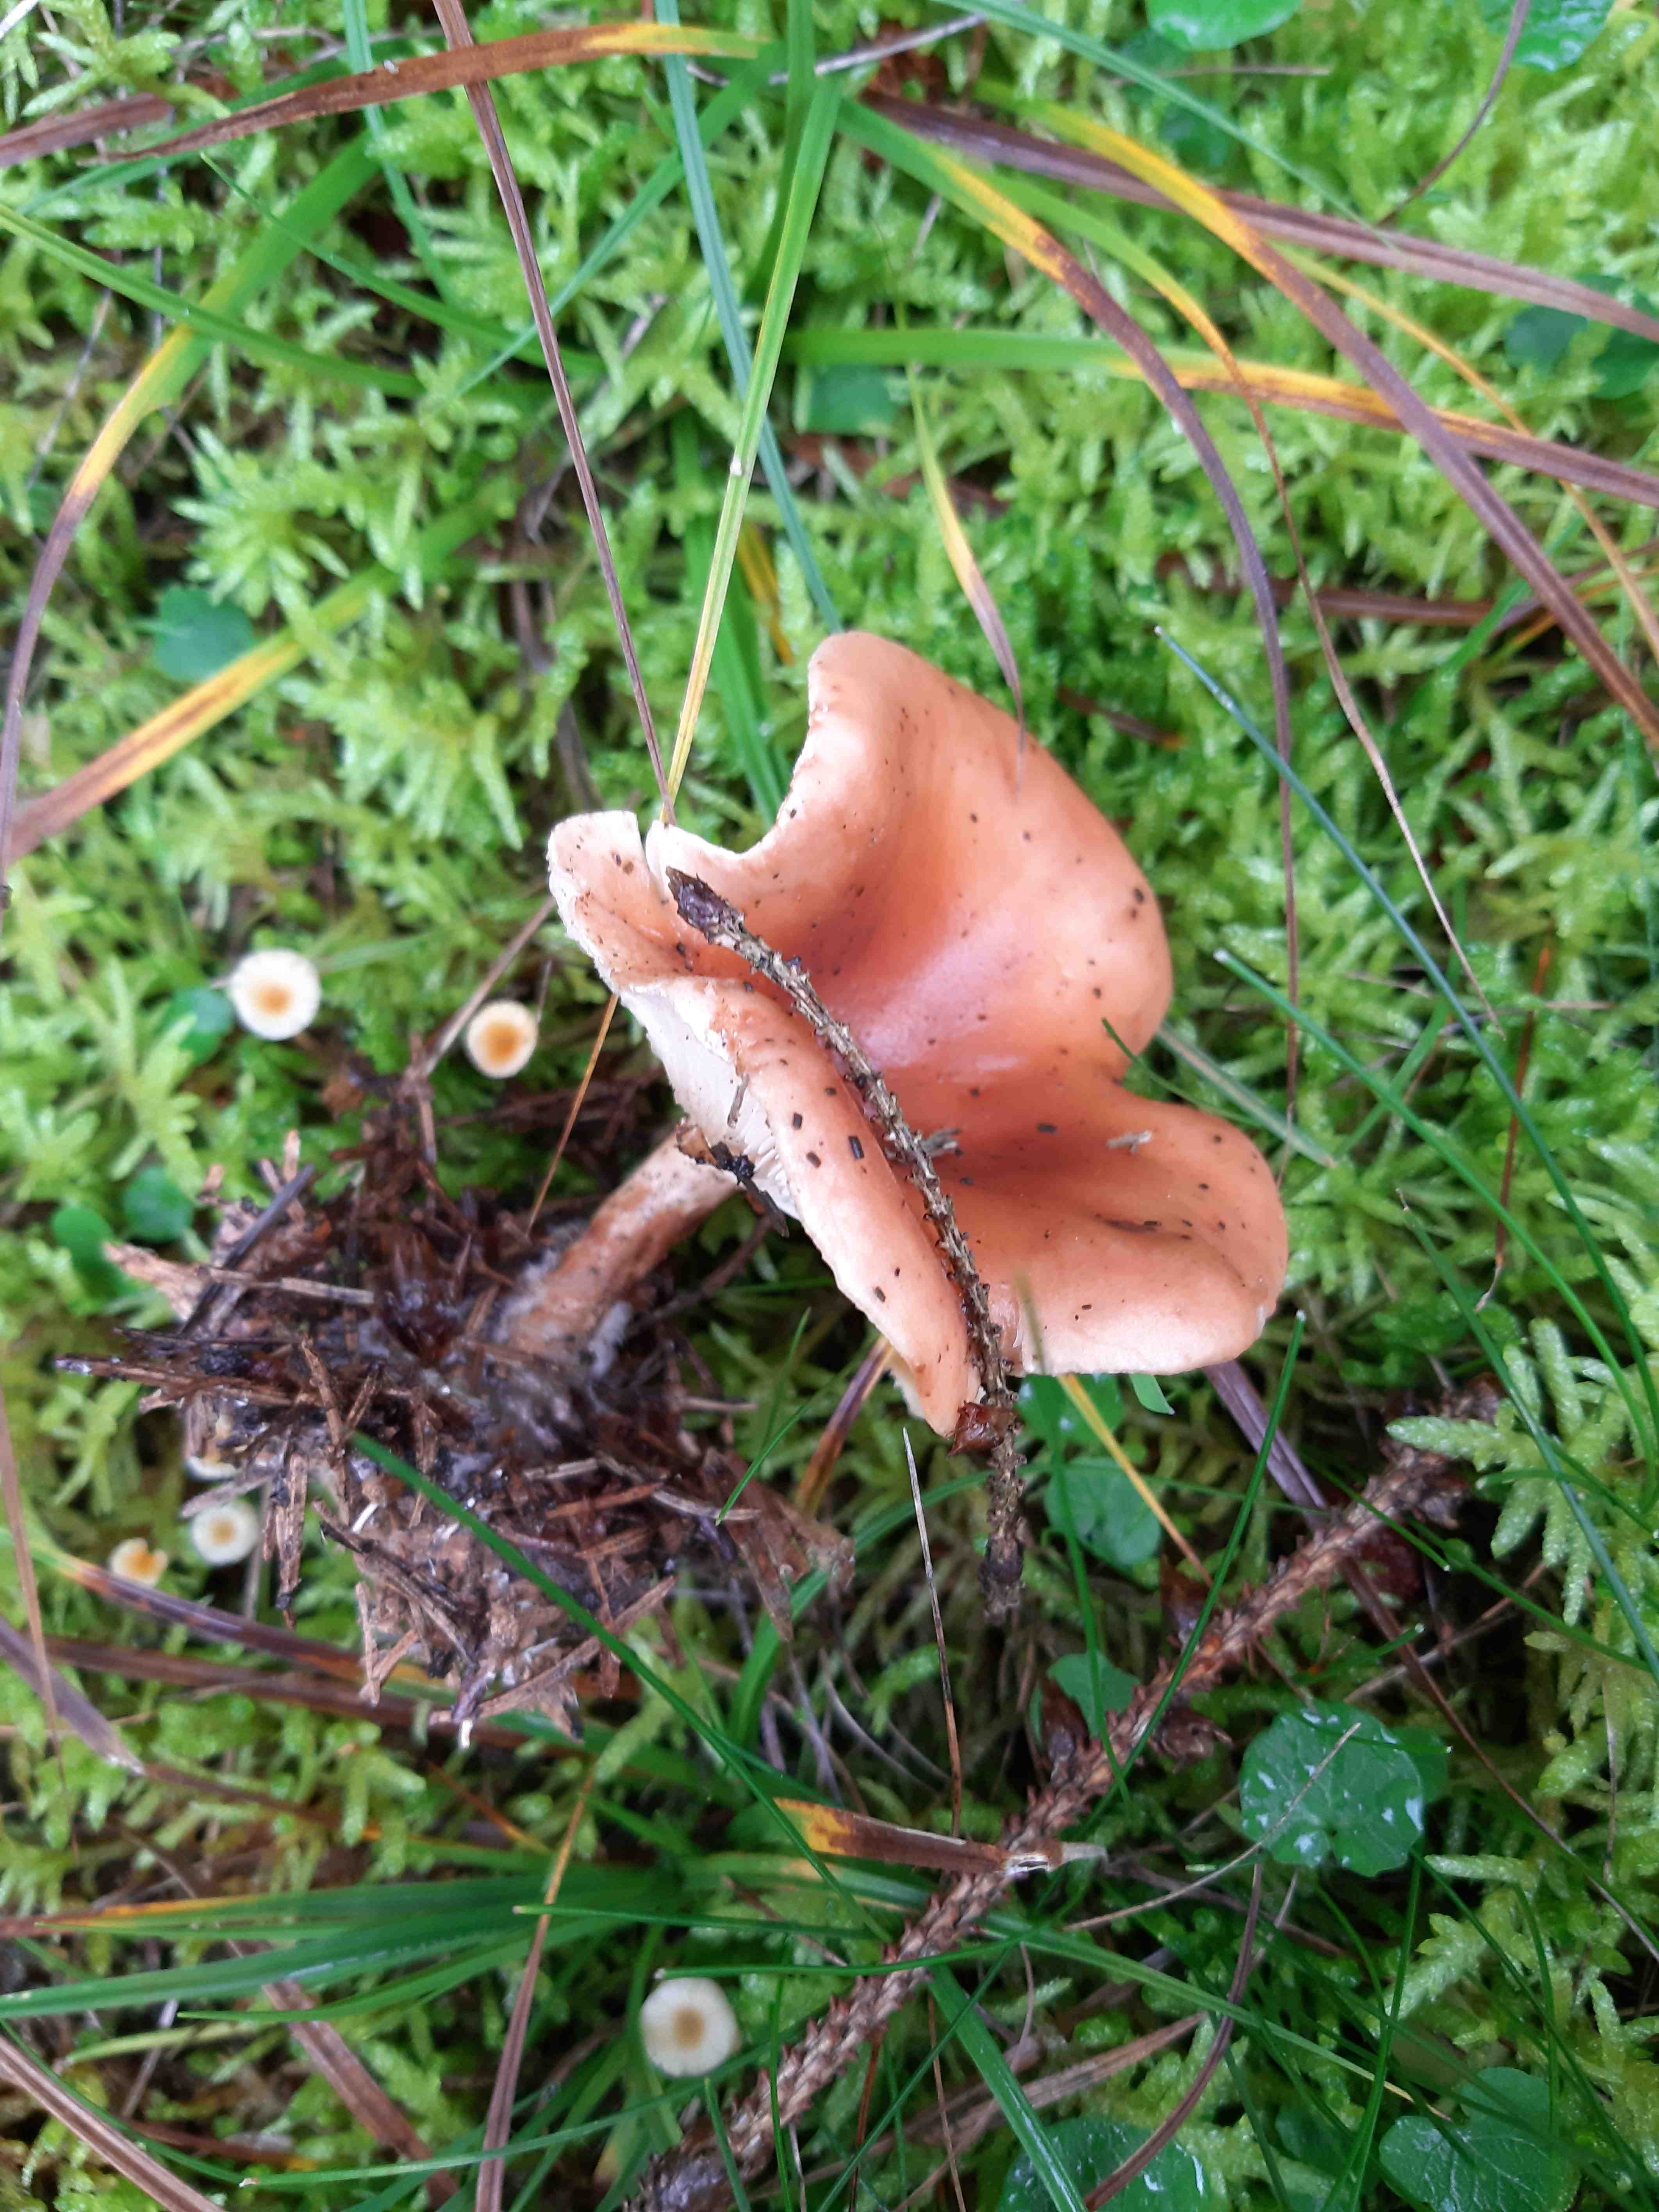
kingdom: Fungi
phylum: Basidiomycota
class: Agaricomycetes
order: Agaricales
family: Tricholomataceae
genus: Paralepista
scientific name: Paralepista flaccida
